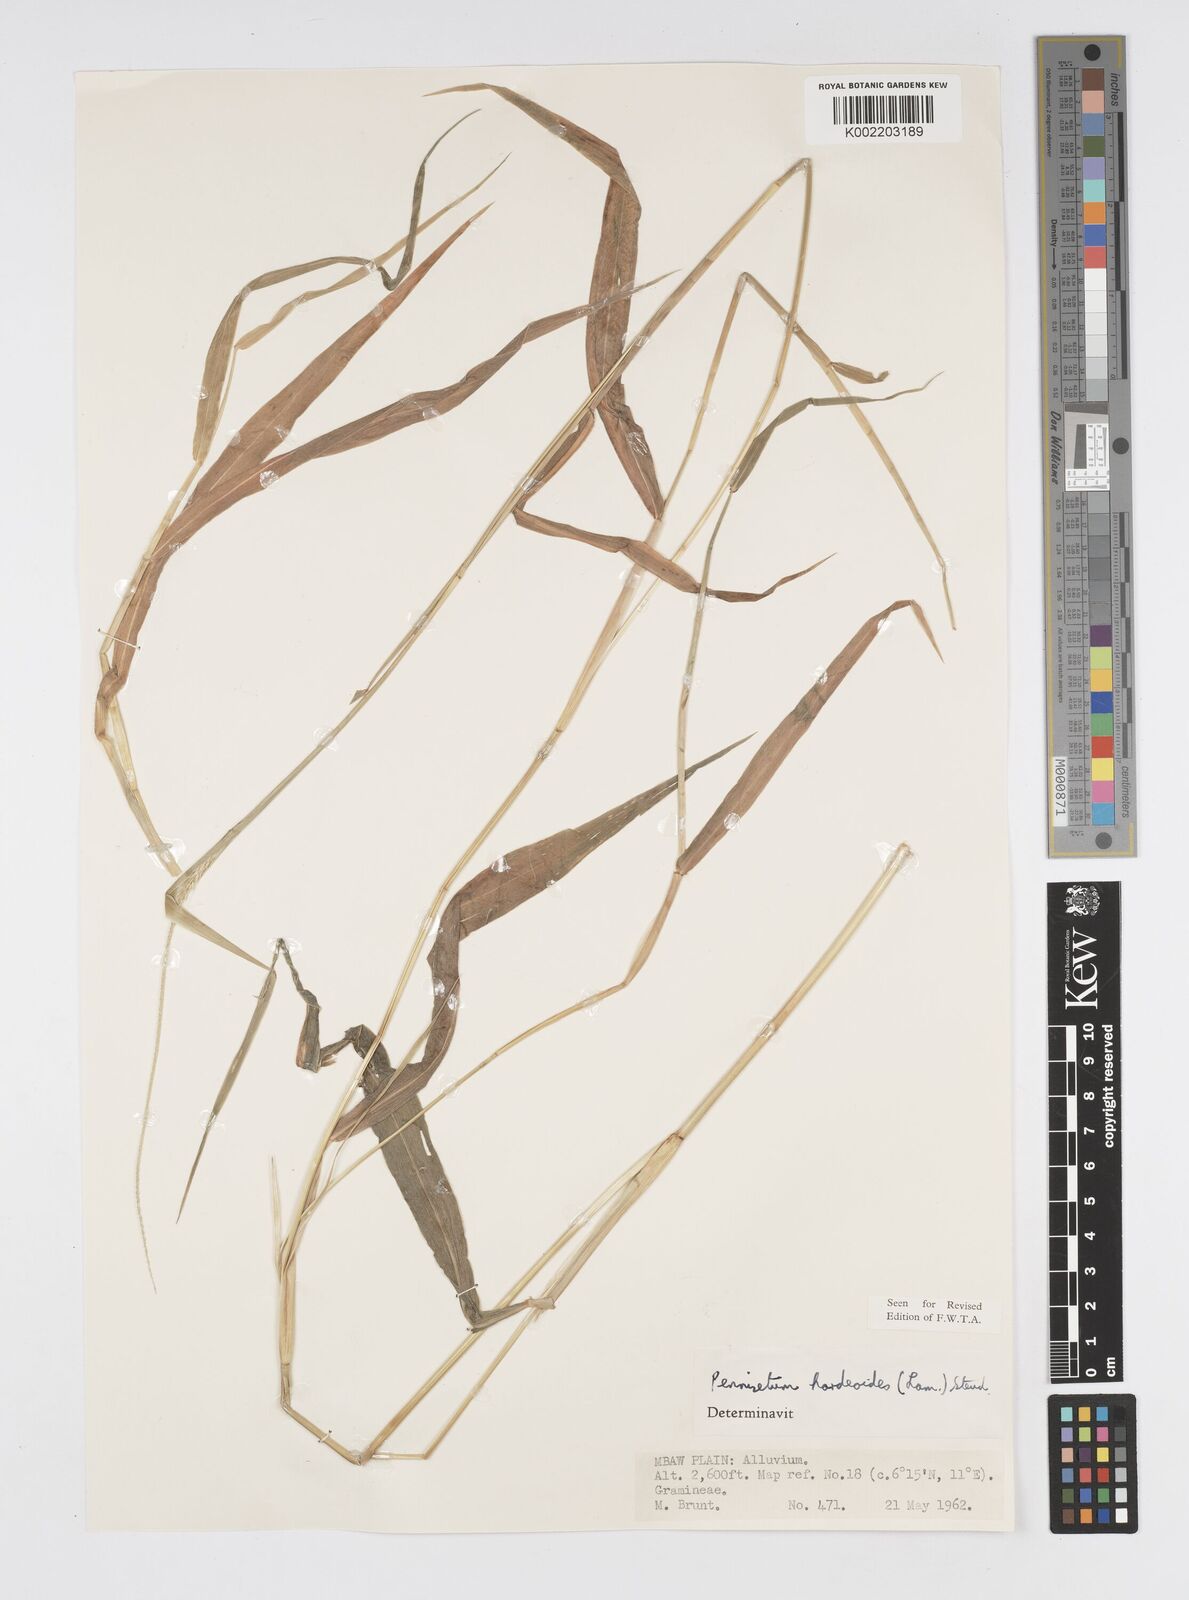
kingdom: Plantae
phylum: Tracheophyta
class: Liliopsida
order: Poales
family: Poaceae
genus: Cenchrus
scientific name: Cenchrus hordeoides
